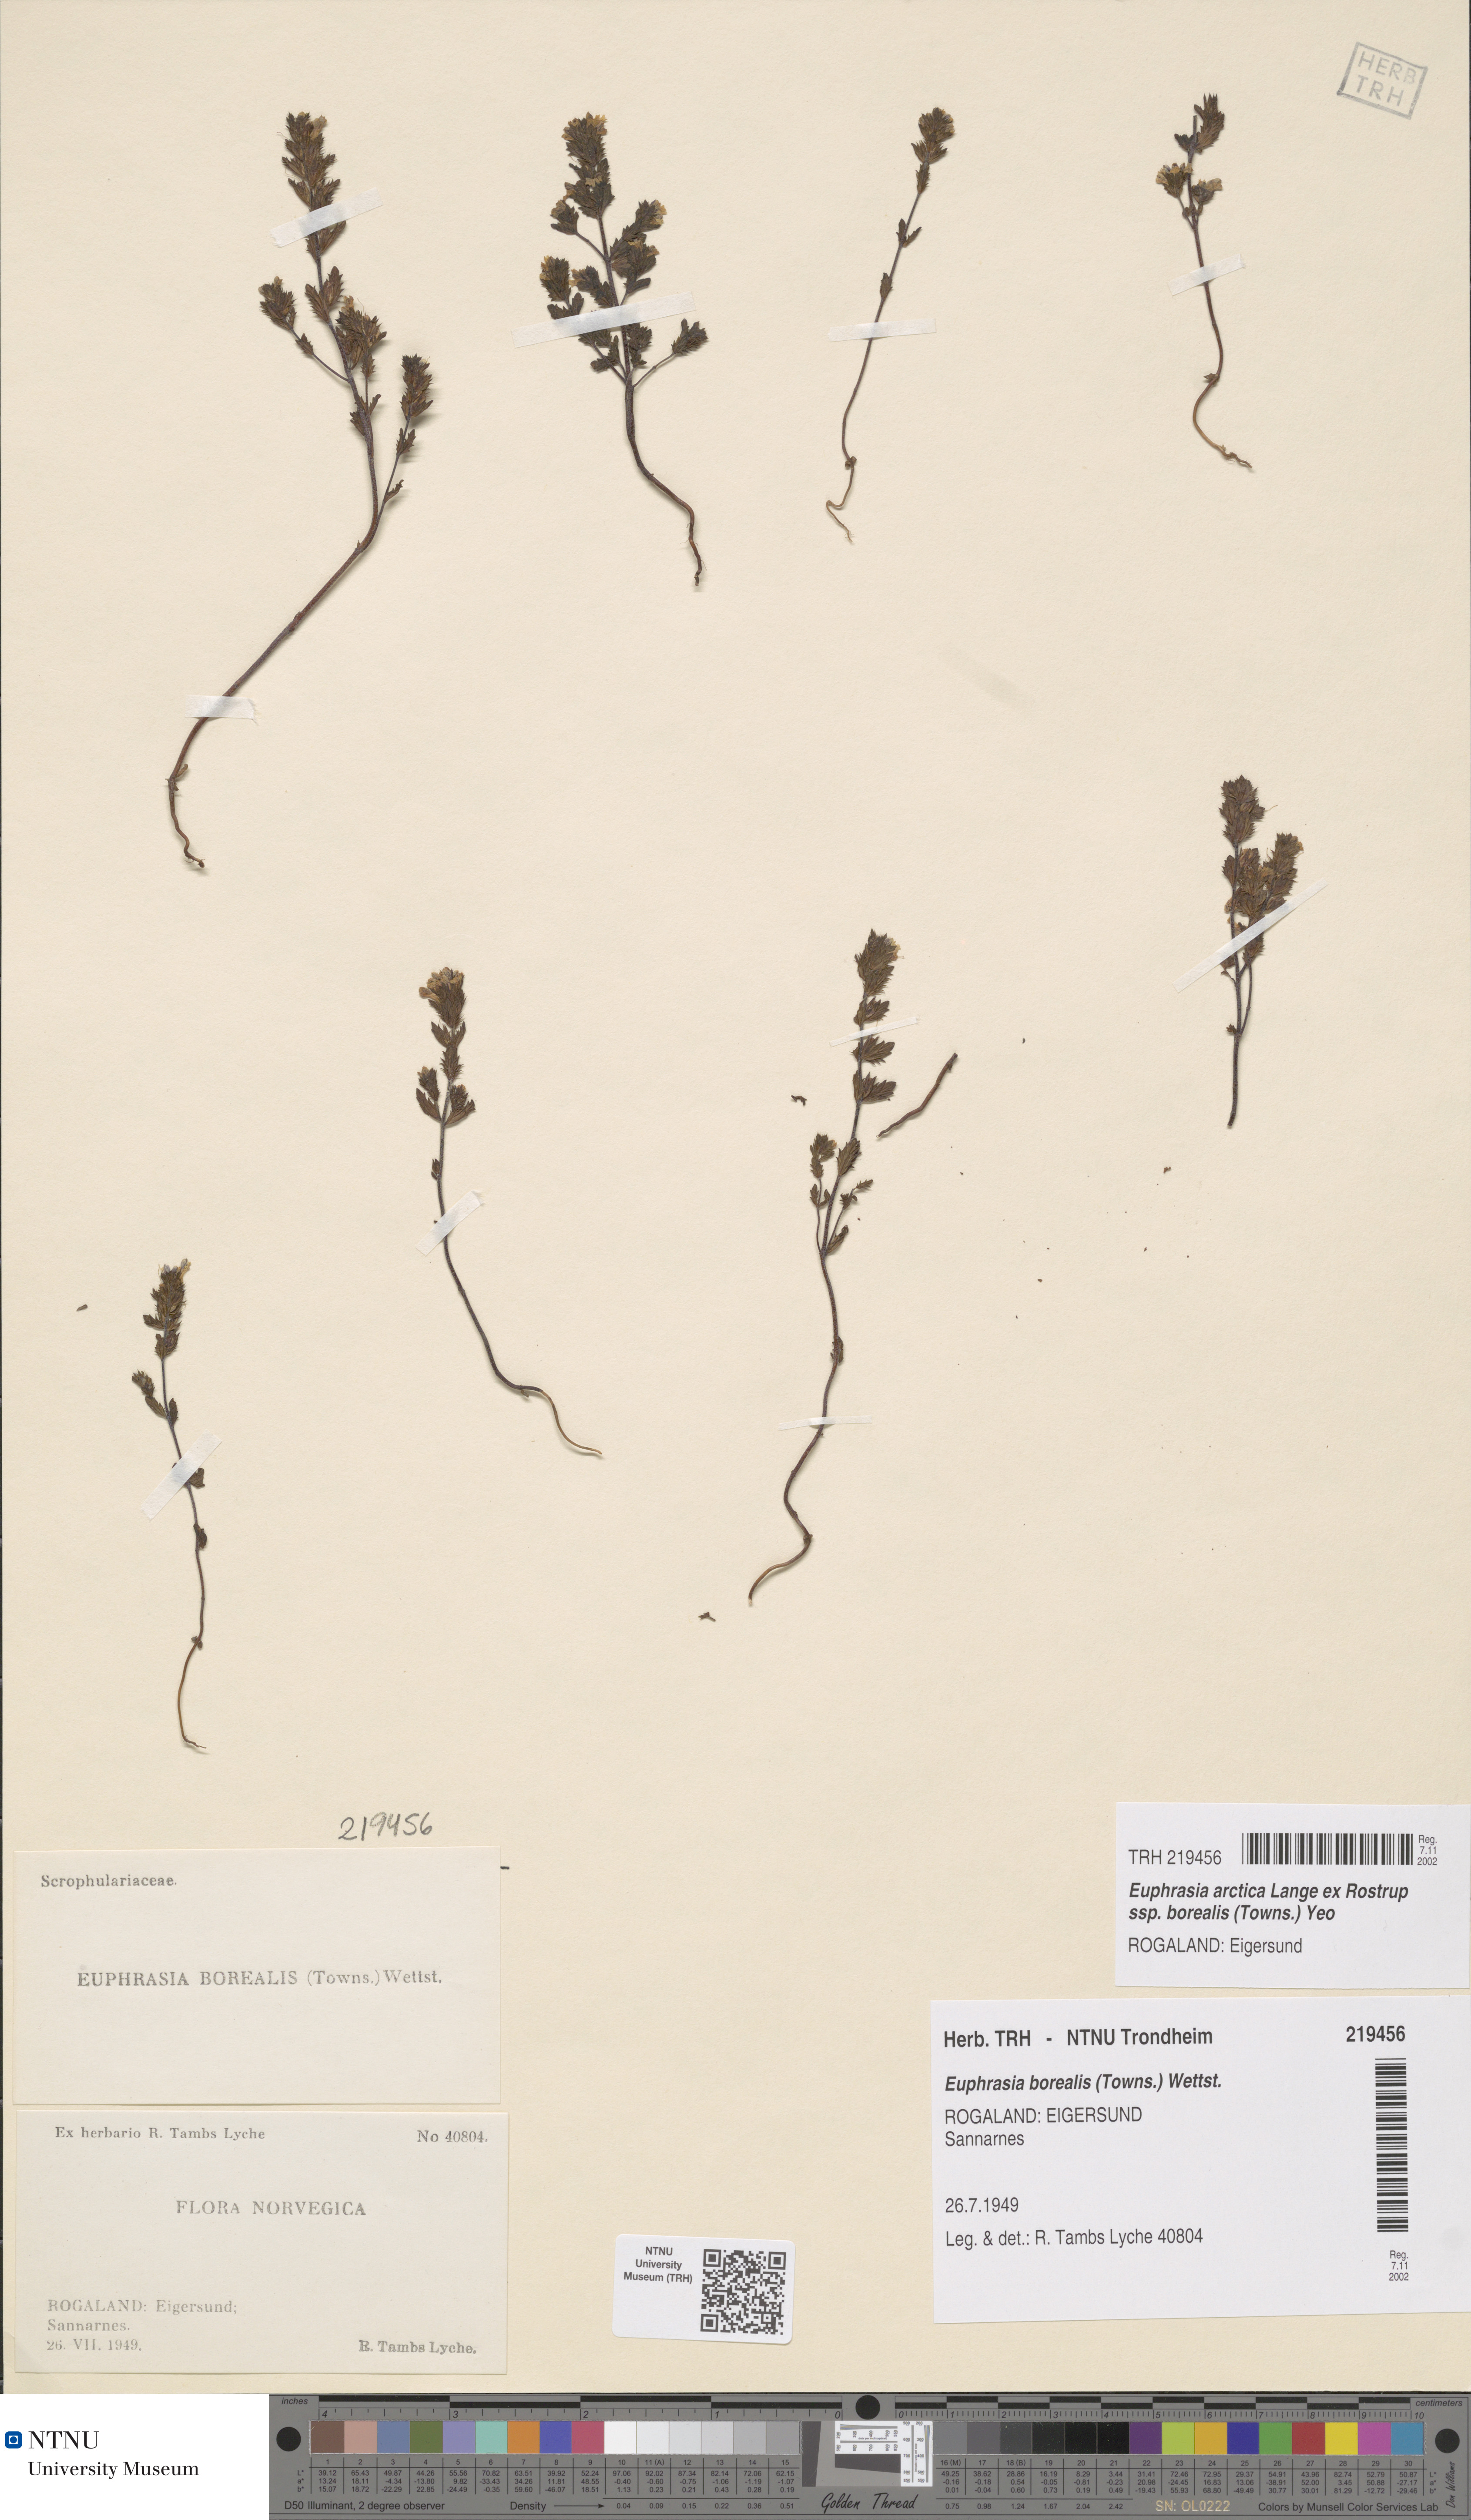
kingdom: Plantae
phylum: Tracheophyta
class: Magnoliopsida
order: Lamiales
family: Orobanchaceae
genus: Euphrasia
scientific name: Euphrasia arctica
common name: An eyebright
